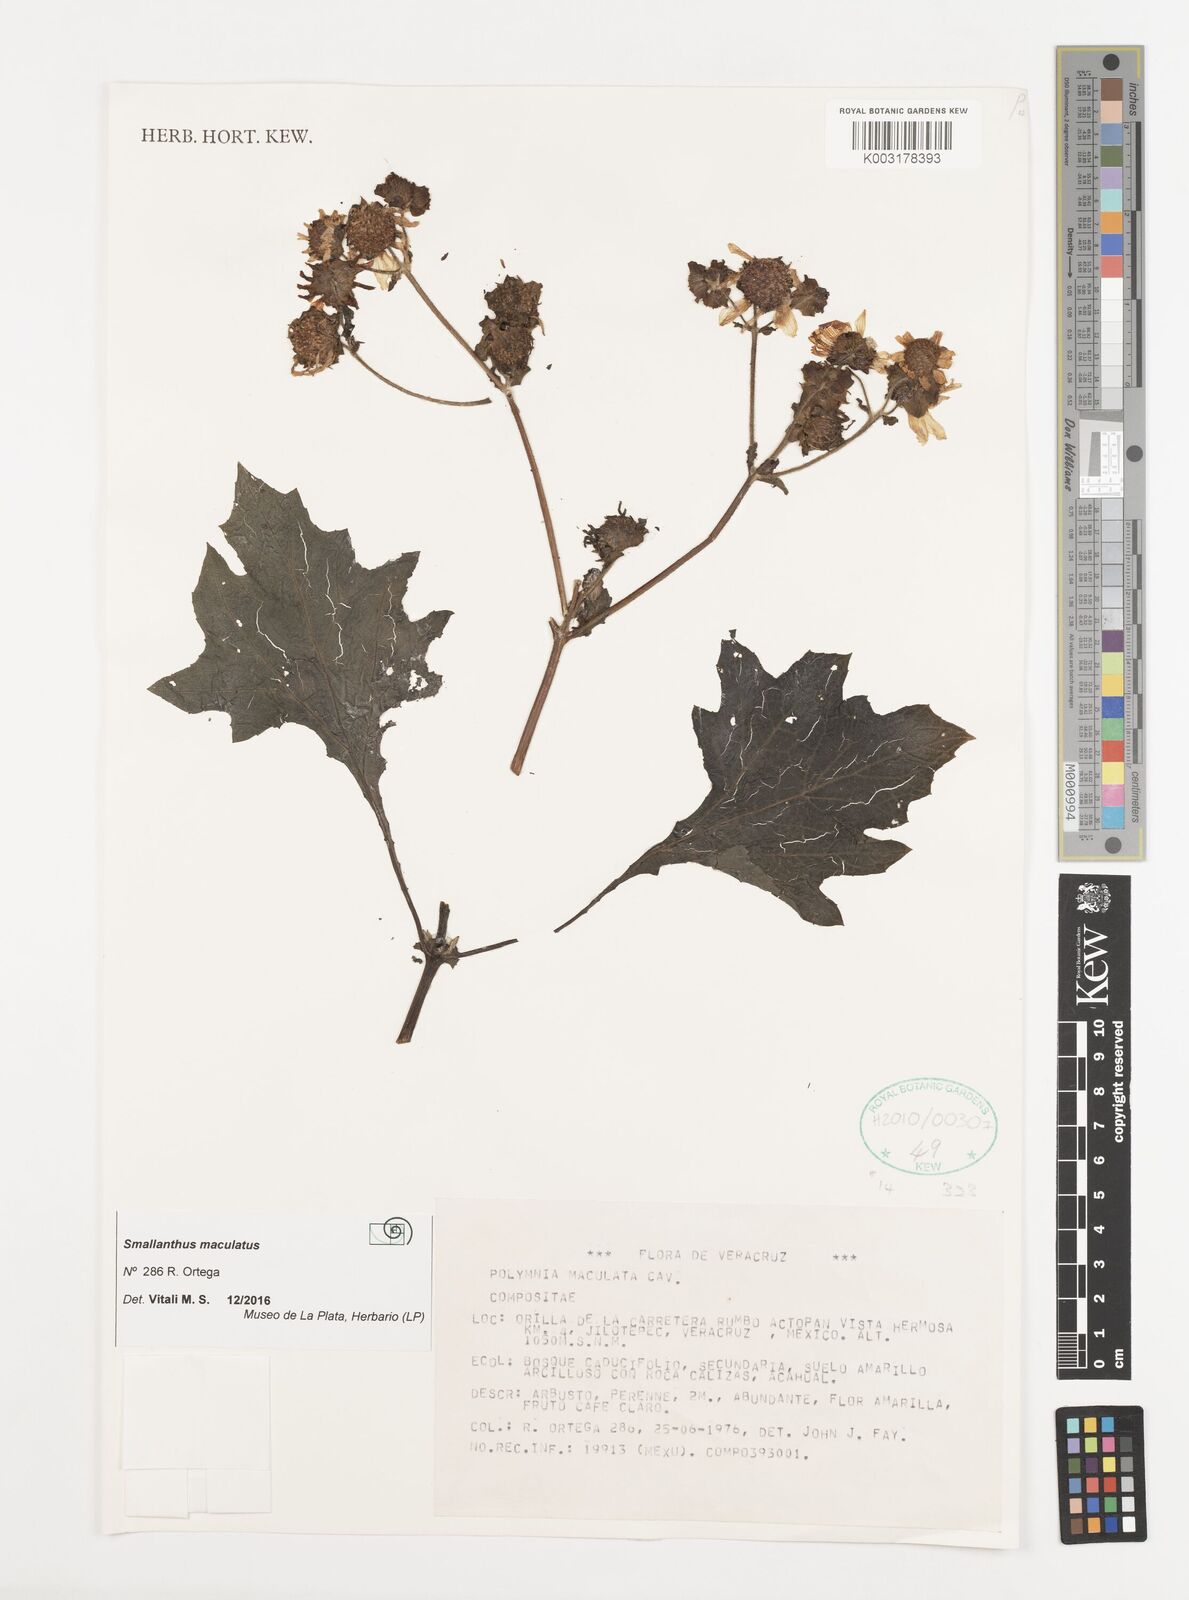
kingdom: Plantae
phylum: Tracheophyta
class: Magnoliopsida
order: Asterales
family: Asteraceae
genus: Smallanthus
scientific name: Smallanthus maculatus
